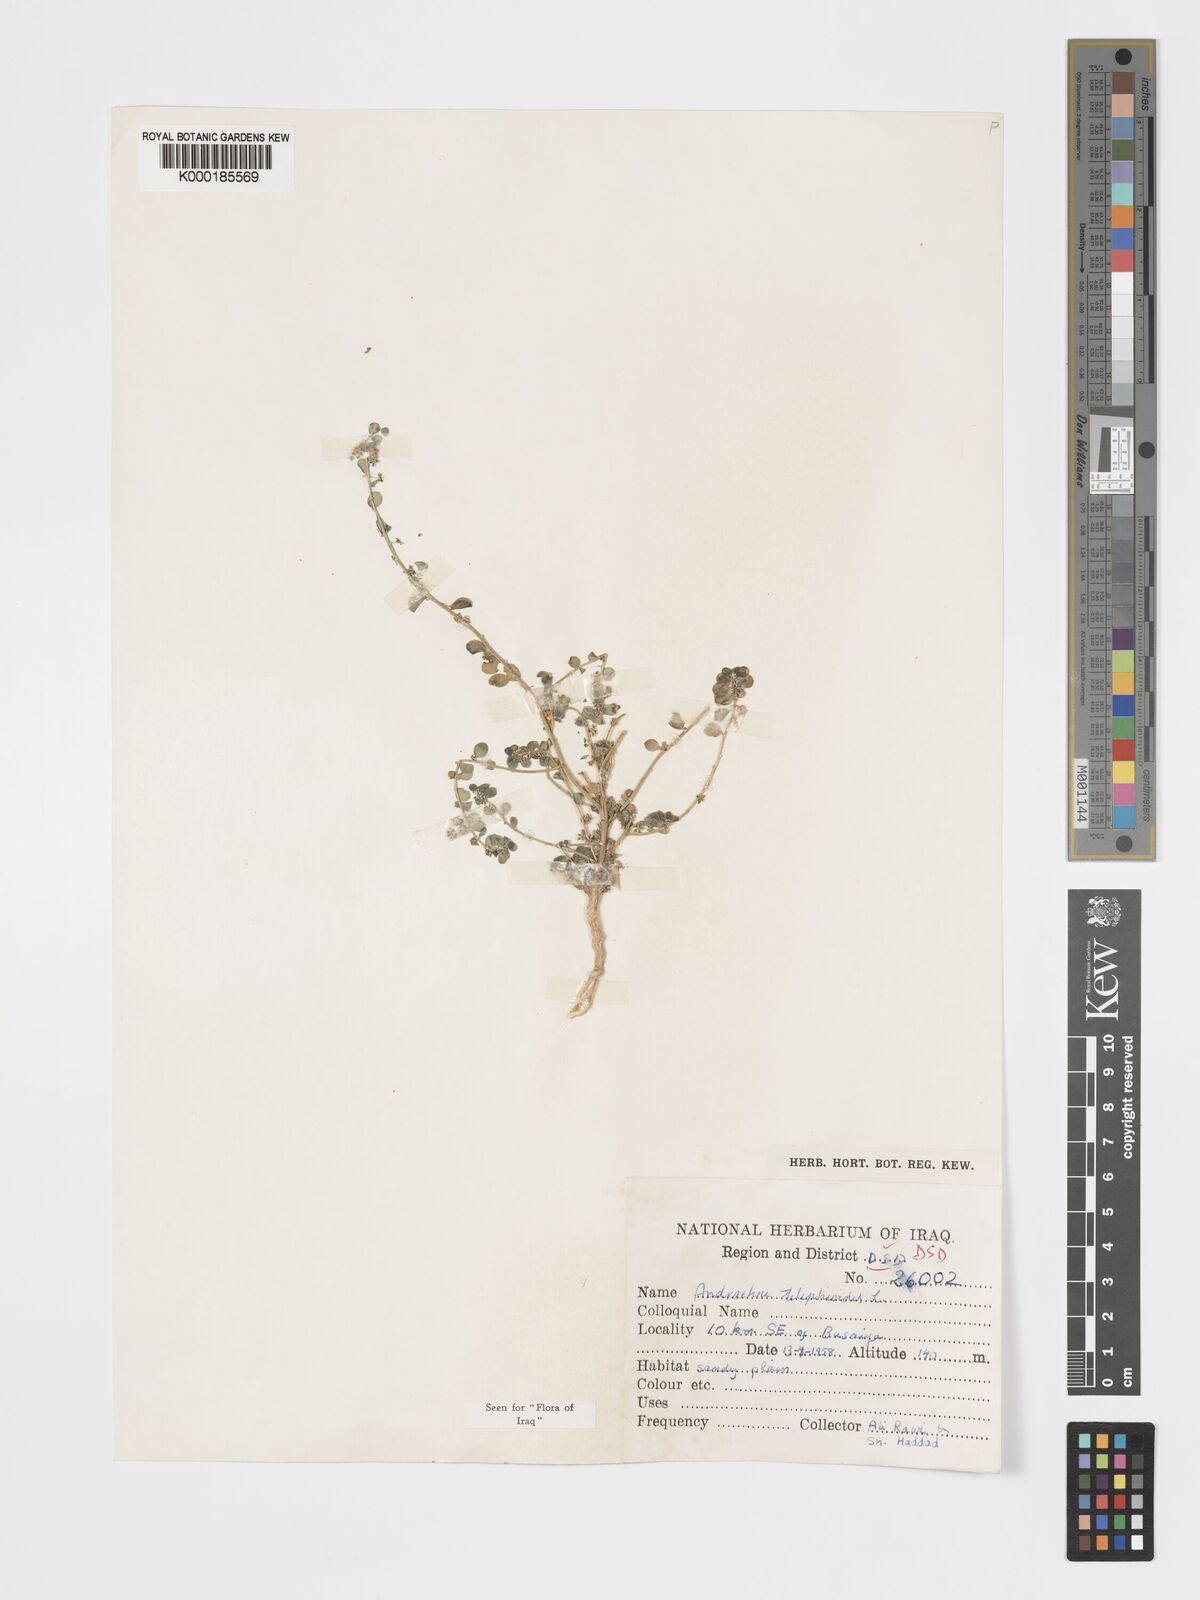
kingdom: Plantae
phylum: Tracheophyta
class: Magnoliopsida
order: Malpighiales
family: Phyllanthaceae
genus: Andrachne
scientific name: Andrachne telephioides
